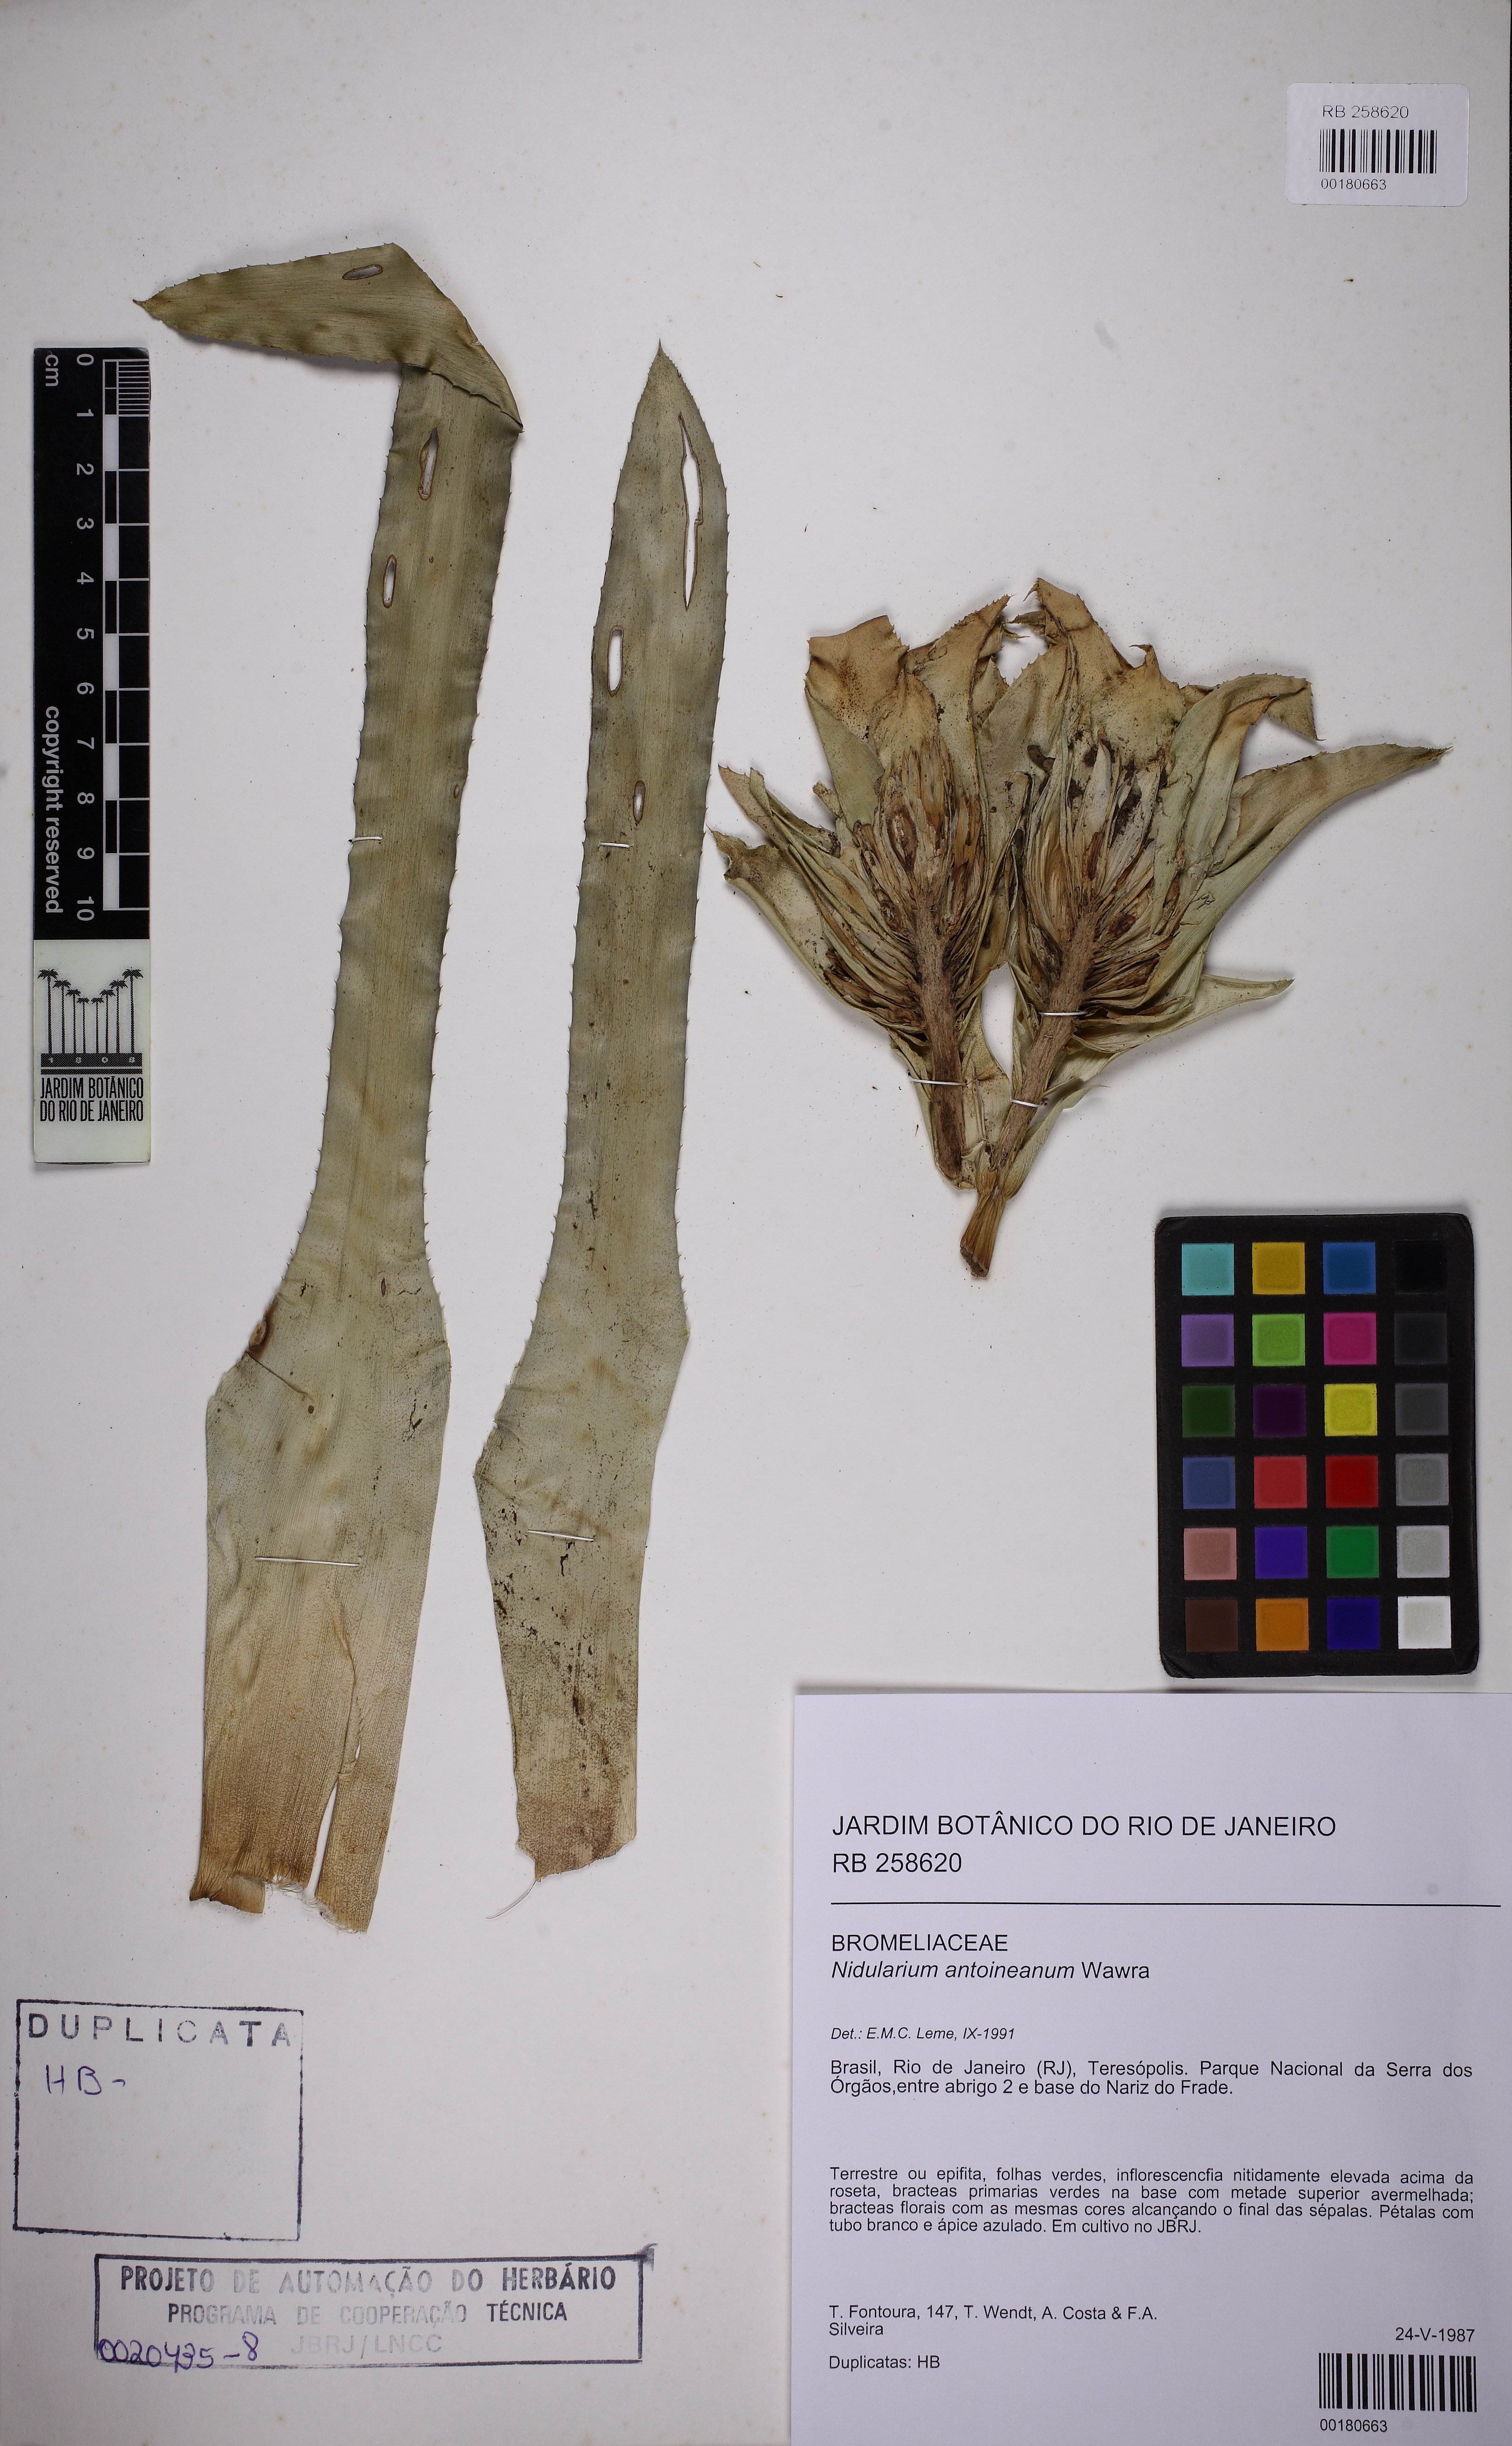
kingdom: Plantae
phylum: Tracheophyta
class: Liliopsida
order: Poales
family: Bromeliaceae
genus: Nidularium
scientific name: Nidularium antoineanum
